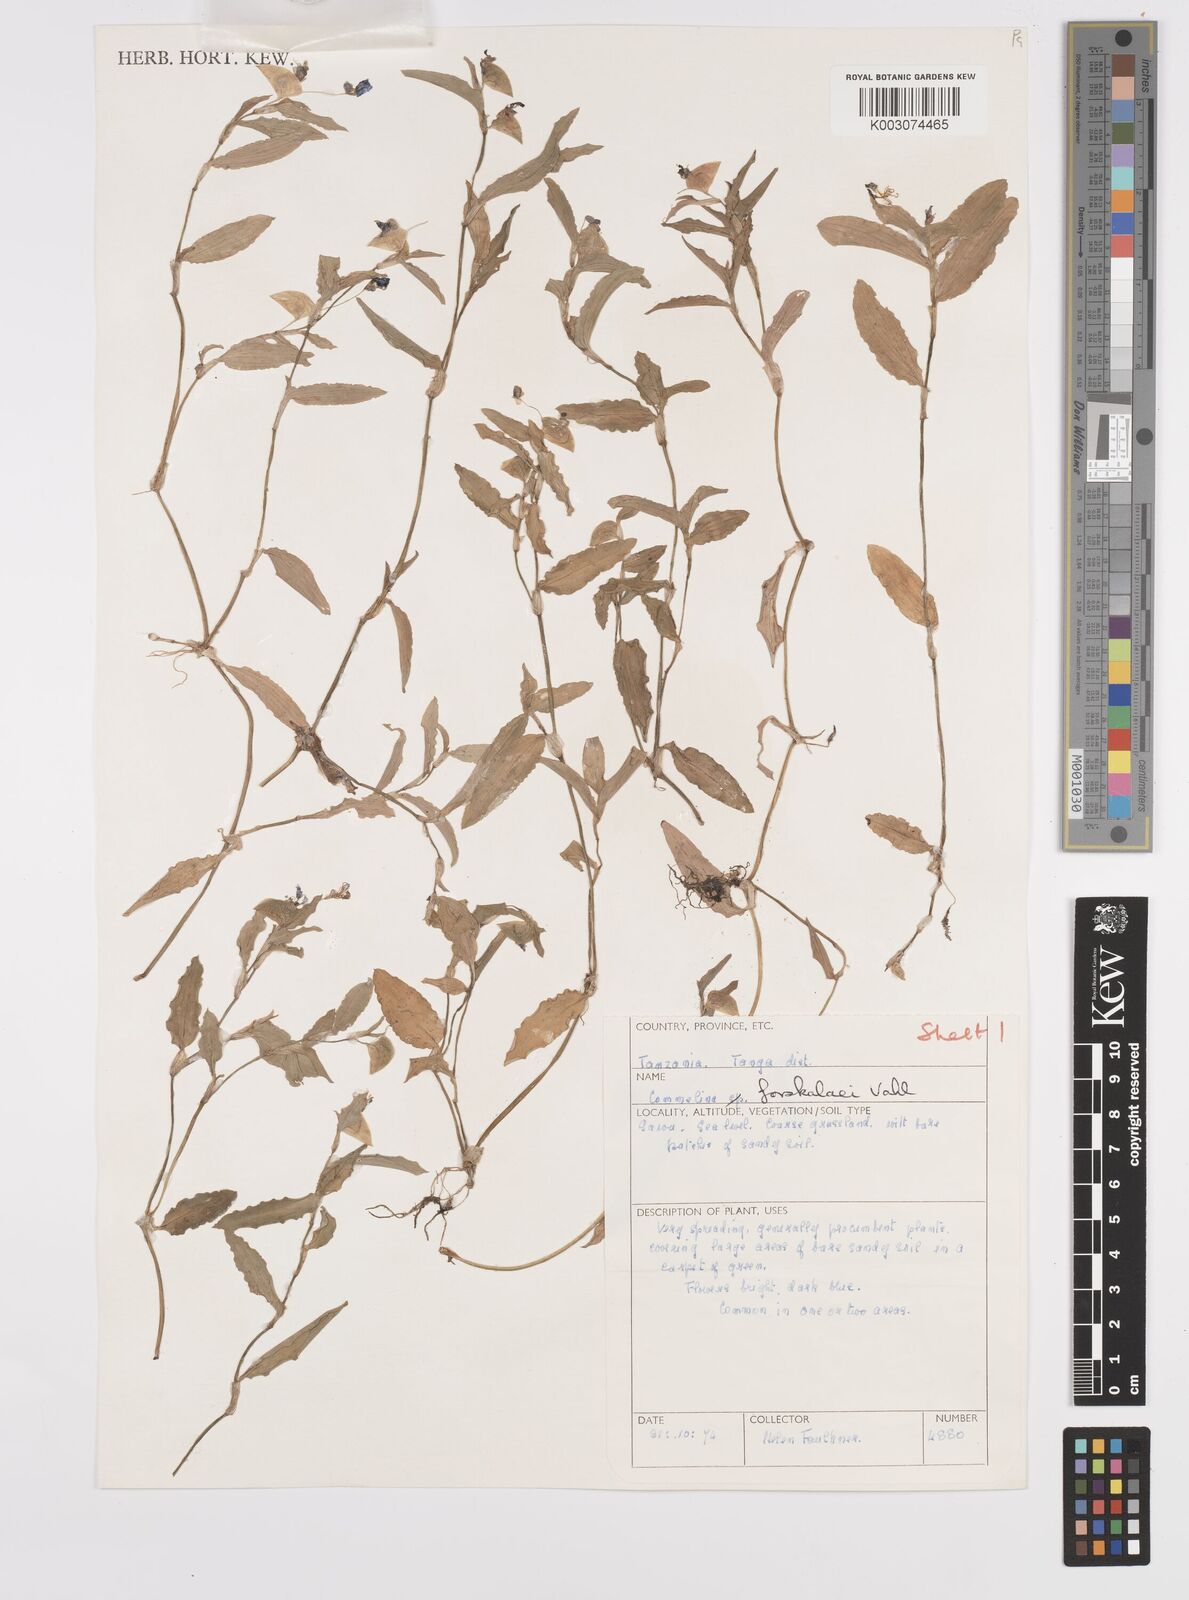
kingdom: Plantae
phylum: Tracheophyta
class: Liliopsida
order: Commelinales
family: Commelinaceae
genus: Commelina
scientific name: Commelina forskaolii
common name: Rat's ear
